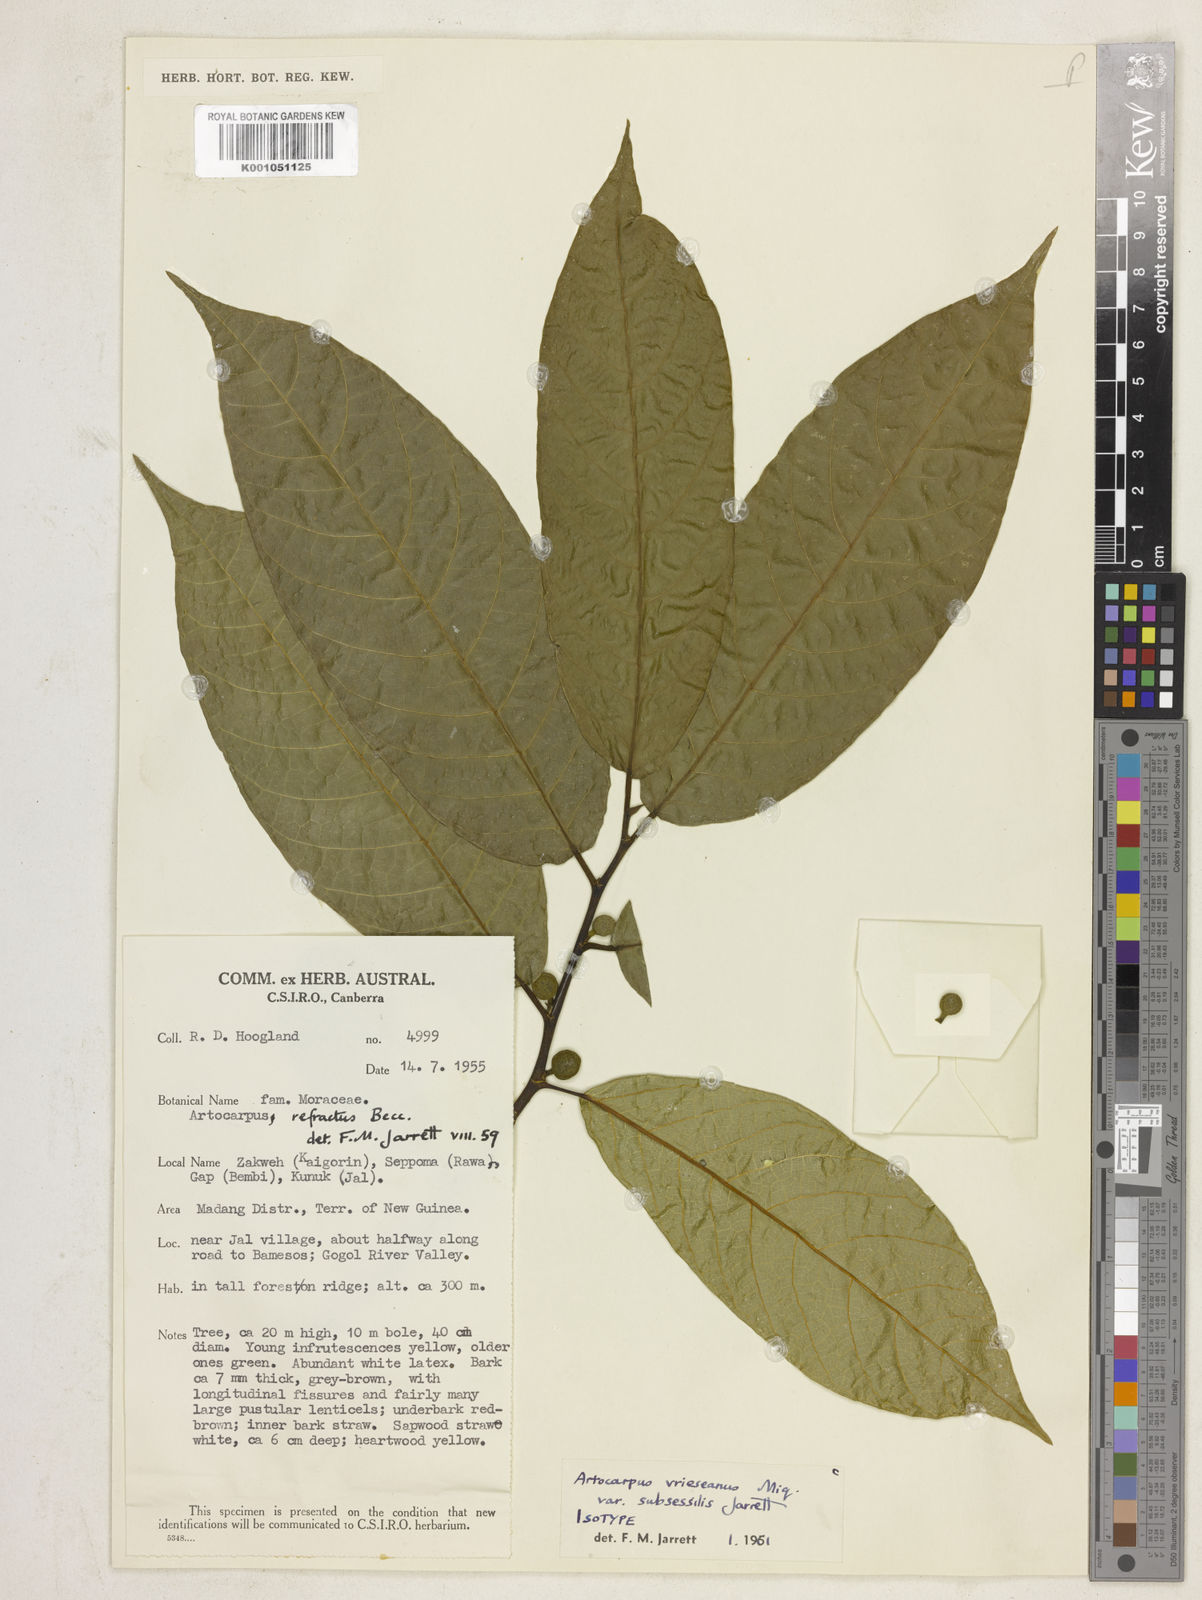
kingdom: Plantae
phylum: Tracheophyta
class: Magnoliopsida
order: Rosales
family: Moraceae
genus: Artocarpus
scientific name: Artocarpus
